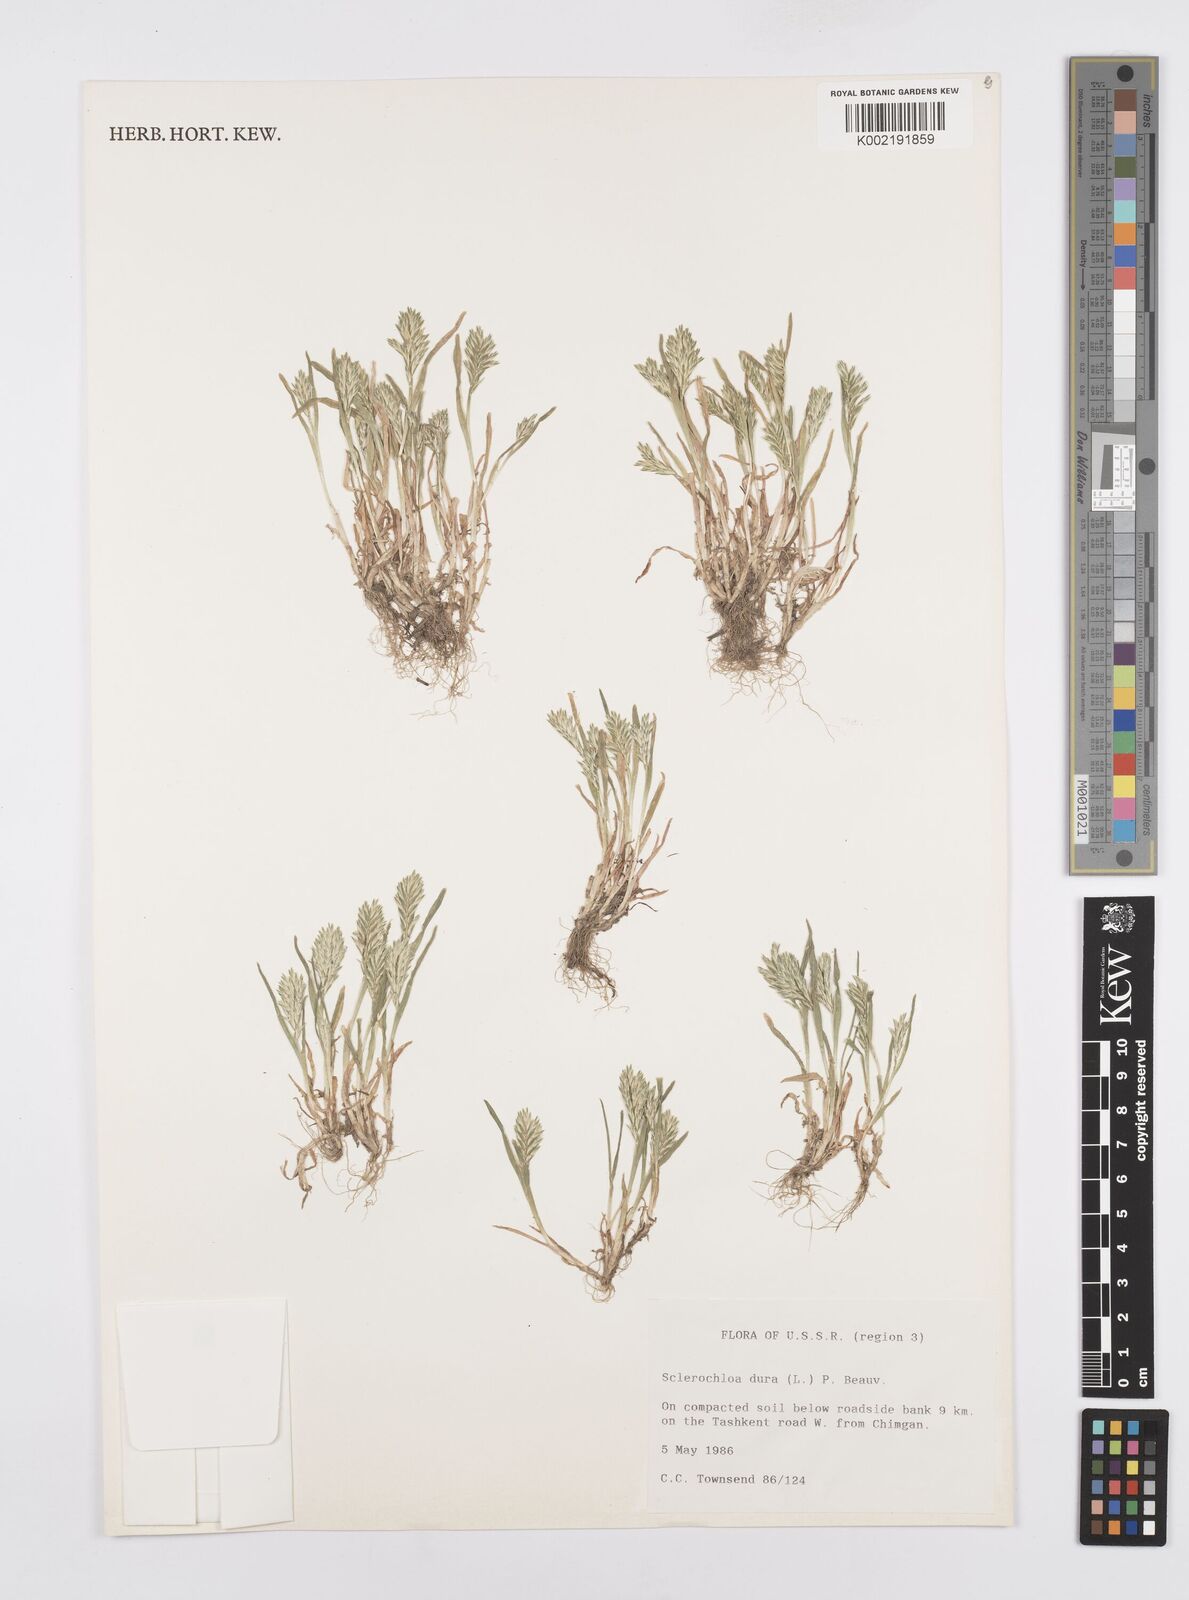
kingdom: Plantae
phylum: Tracheophyta
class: Liliopsida
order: Poales
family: Poaceae
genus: Sclerochloa
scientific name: Sclerochloa dura
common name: Common hardgrass
